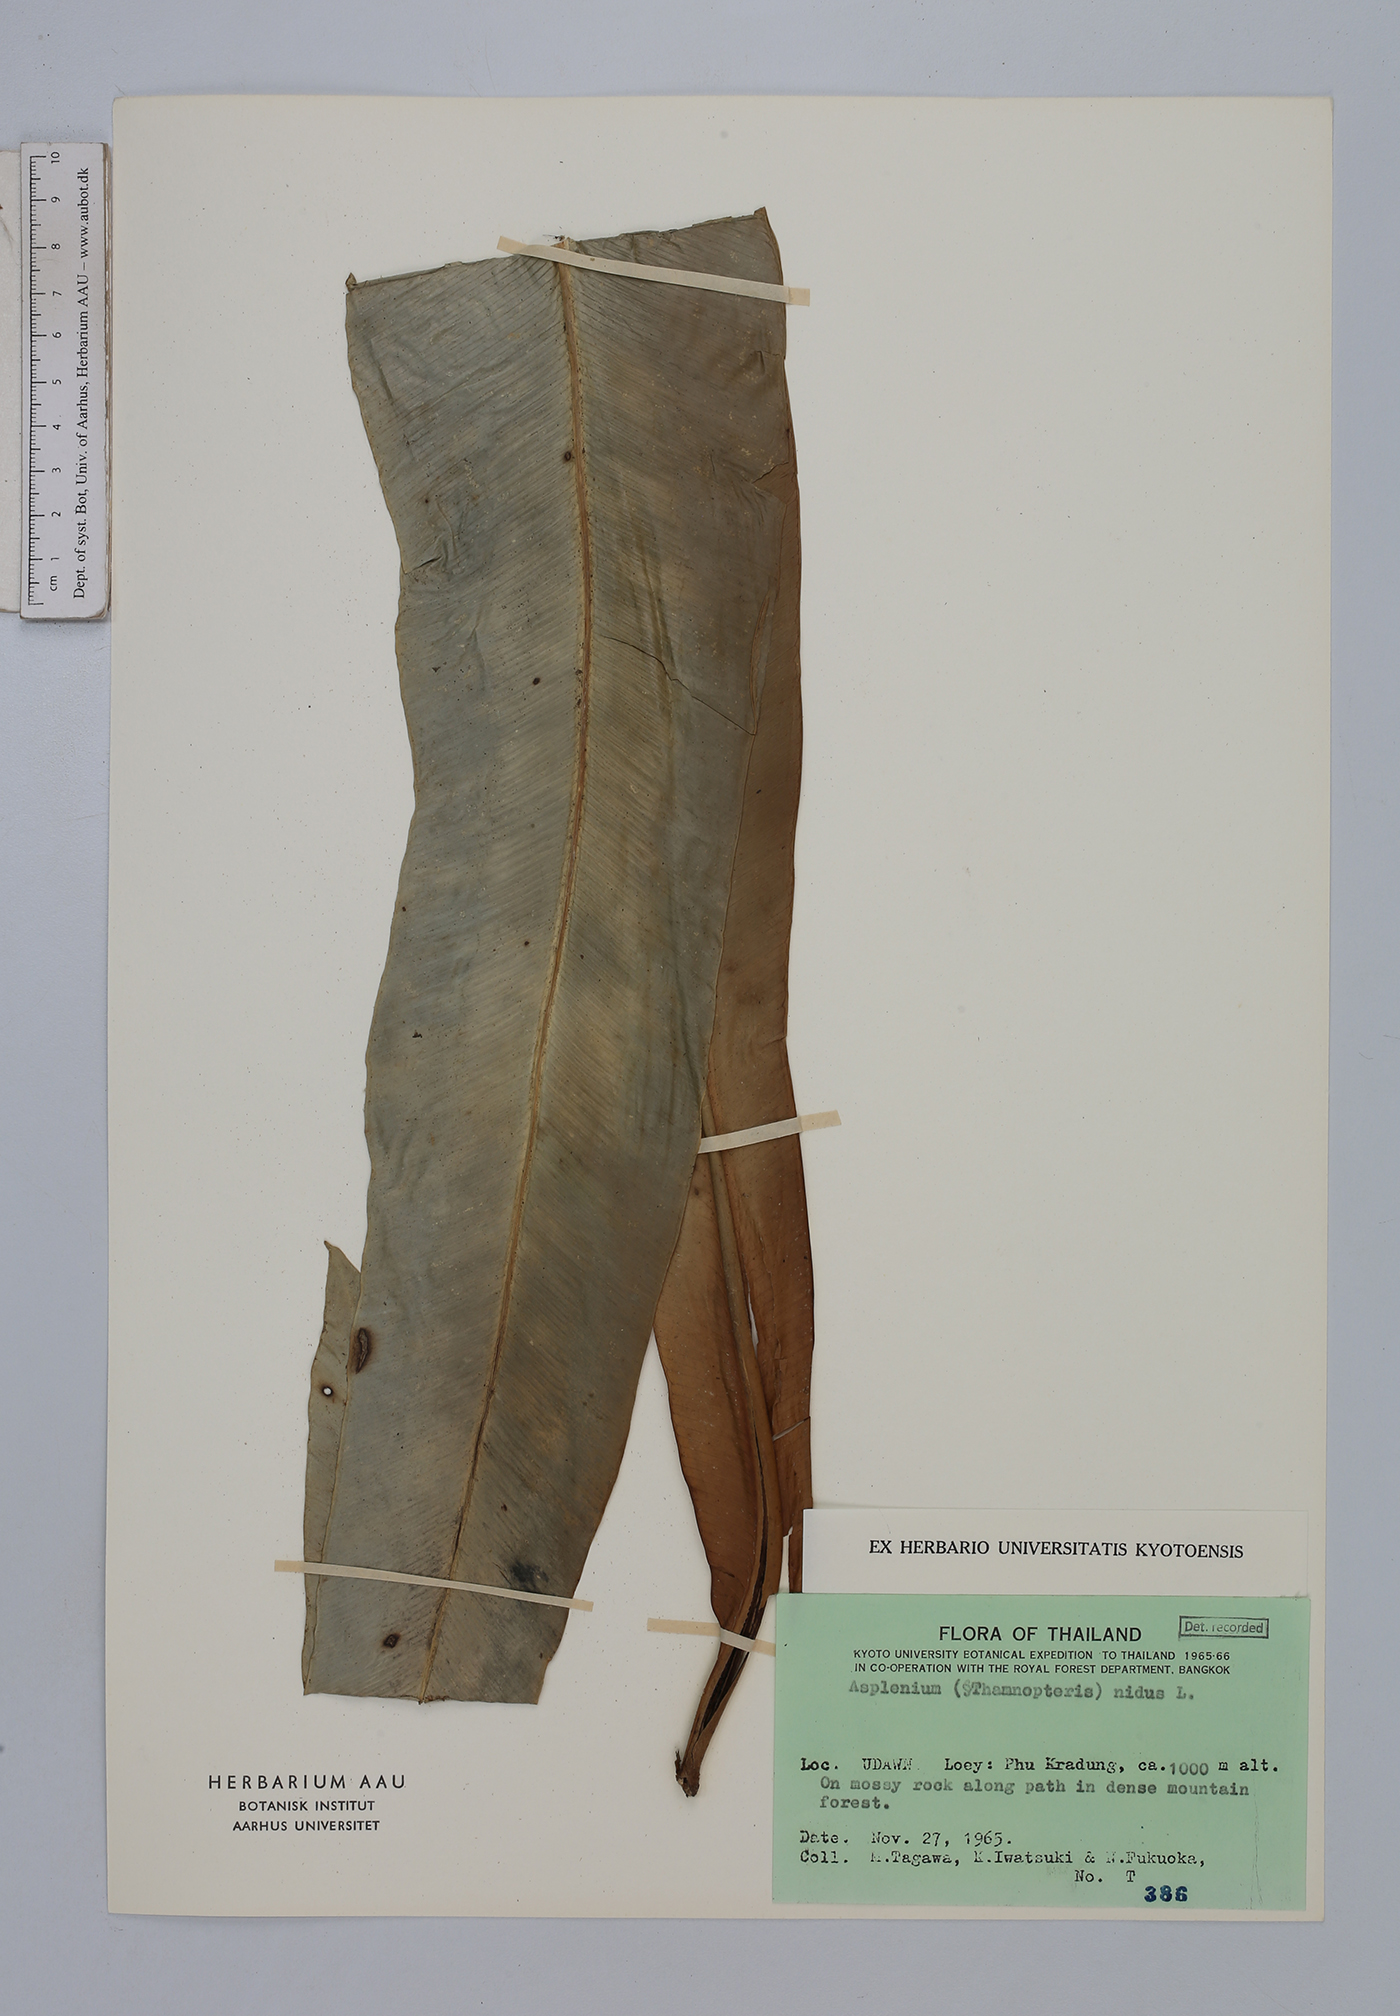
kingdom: Plantae
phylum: Tracheophyta
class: Polypodiopsida
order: Polypodiales
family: Aspleniaceae
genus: Asplenium
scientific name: Asplenium nidus
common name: Bird's-nest fern
